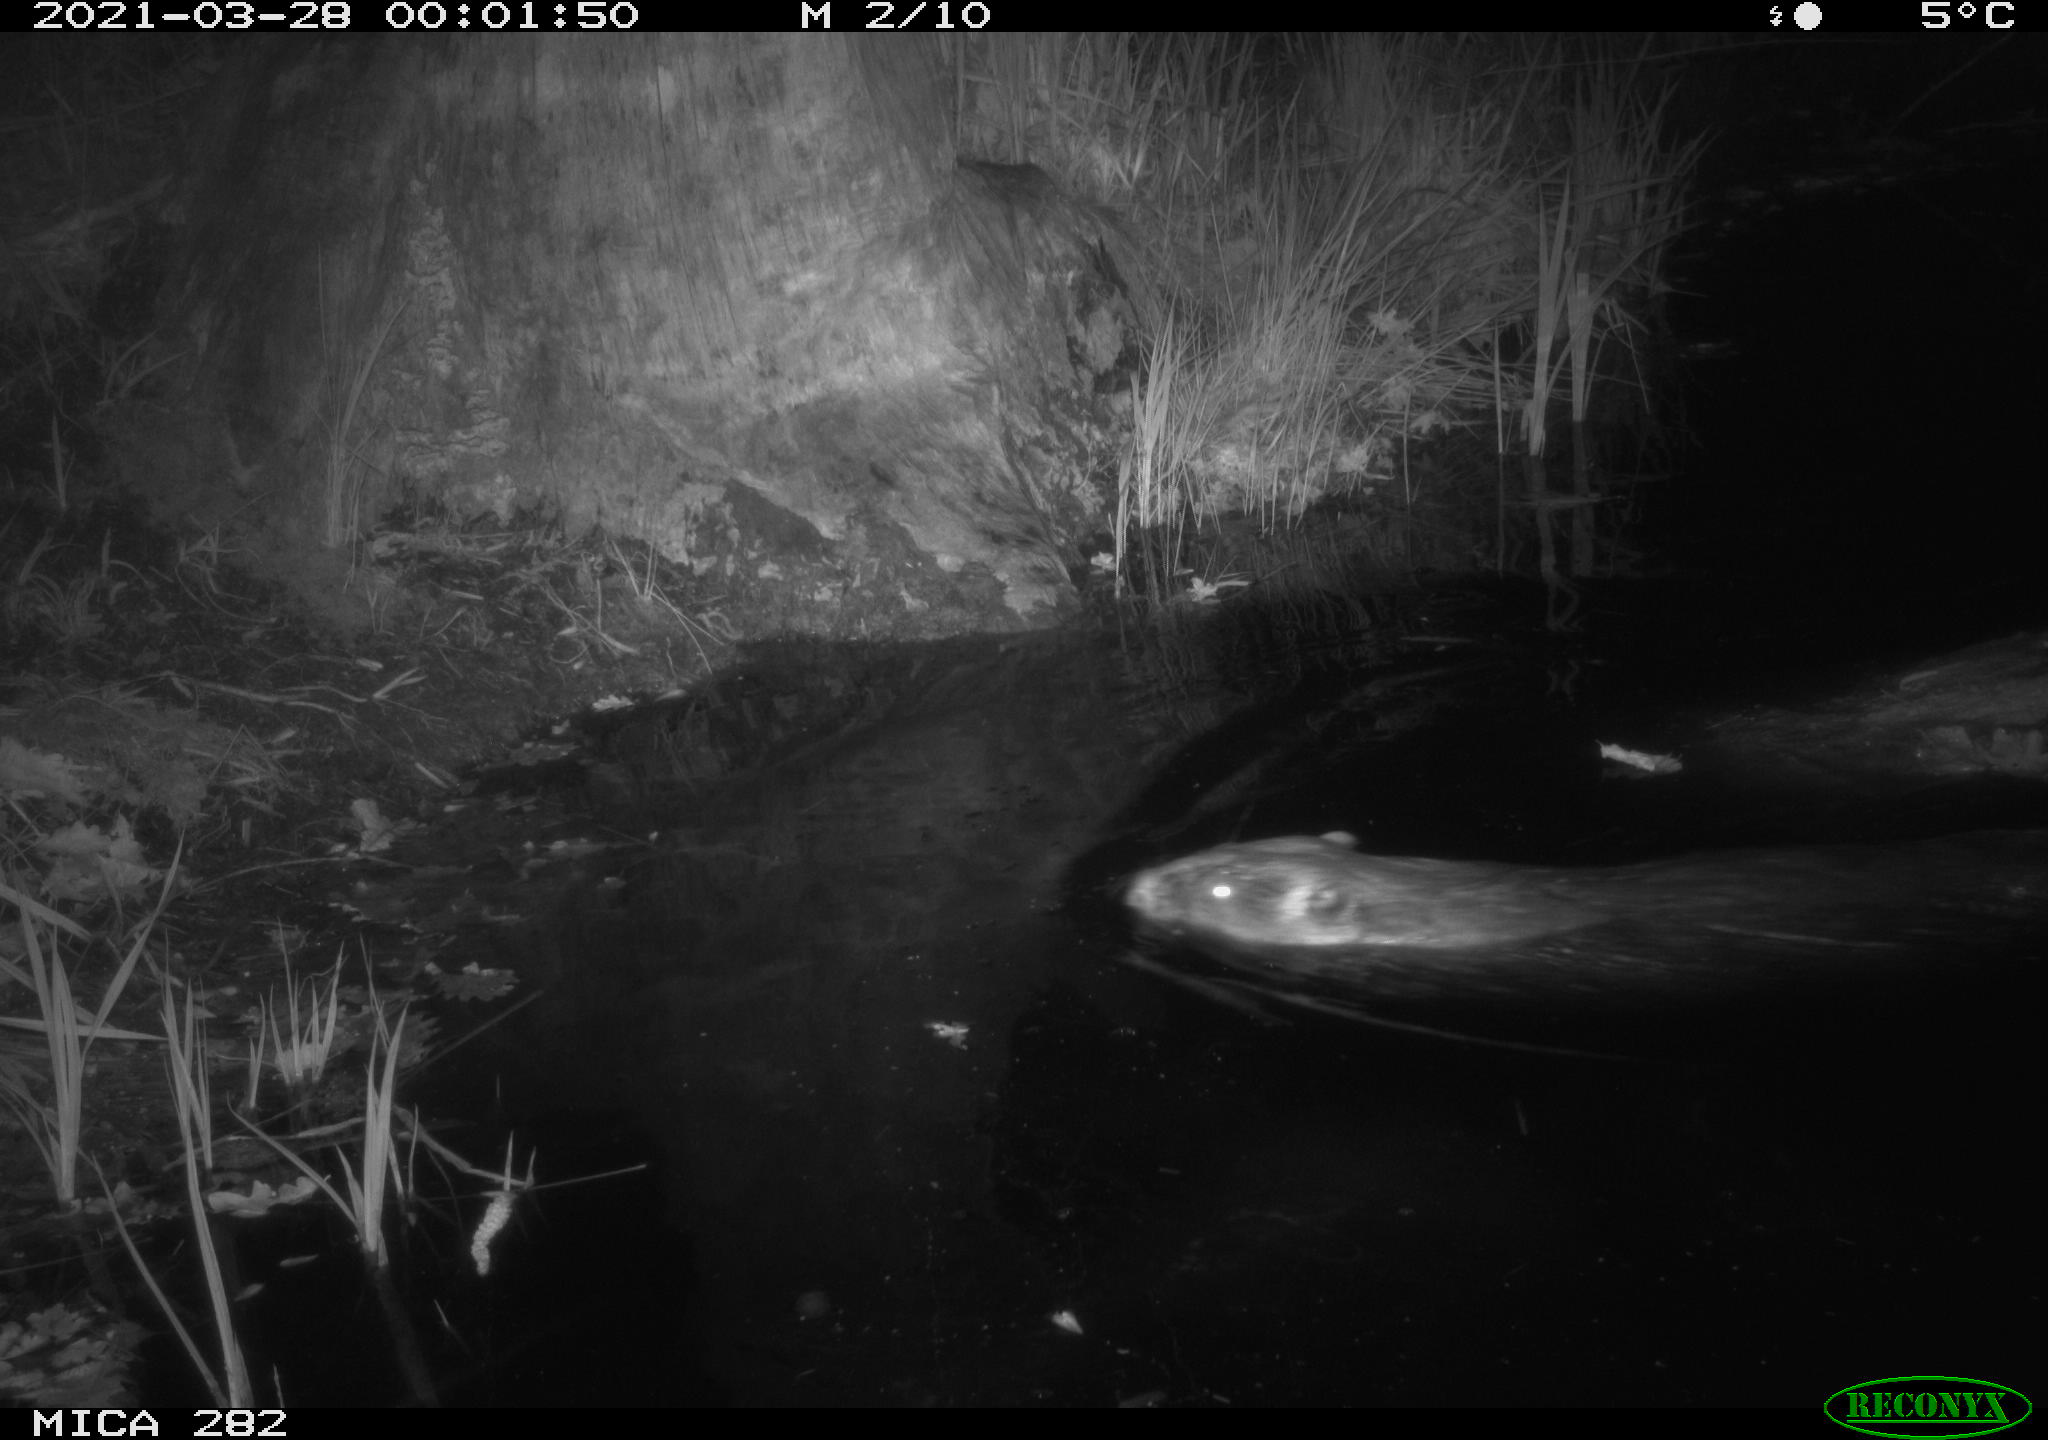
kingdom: Animalia
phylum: Chordata
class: Mammalia
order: Rodentia
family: Castoridae
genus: Castor
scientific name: Castor fiber
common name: Eurasian beaver
